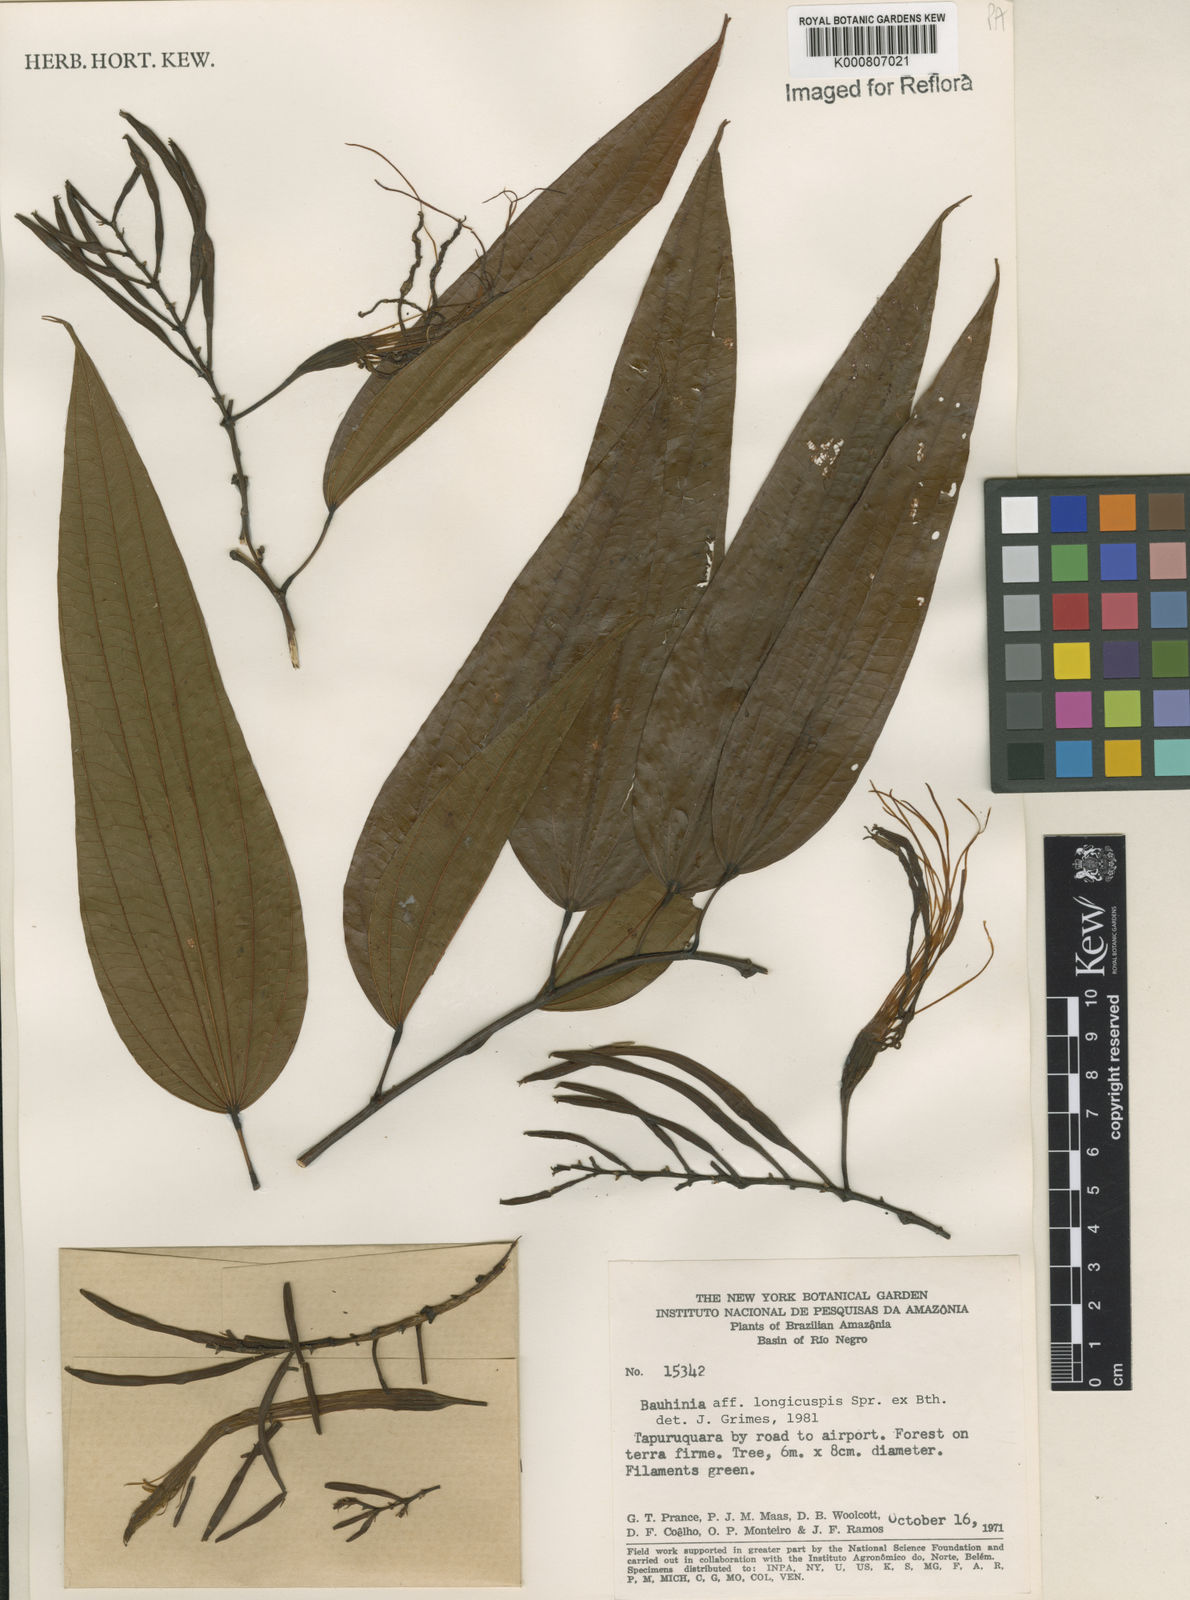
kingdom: Plantae
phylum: Tracheophyta
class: Magnoliopsida
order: Fabales
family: Fabaceae
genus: Bauhinia
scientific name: Bauhinia longicuspis
